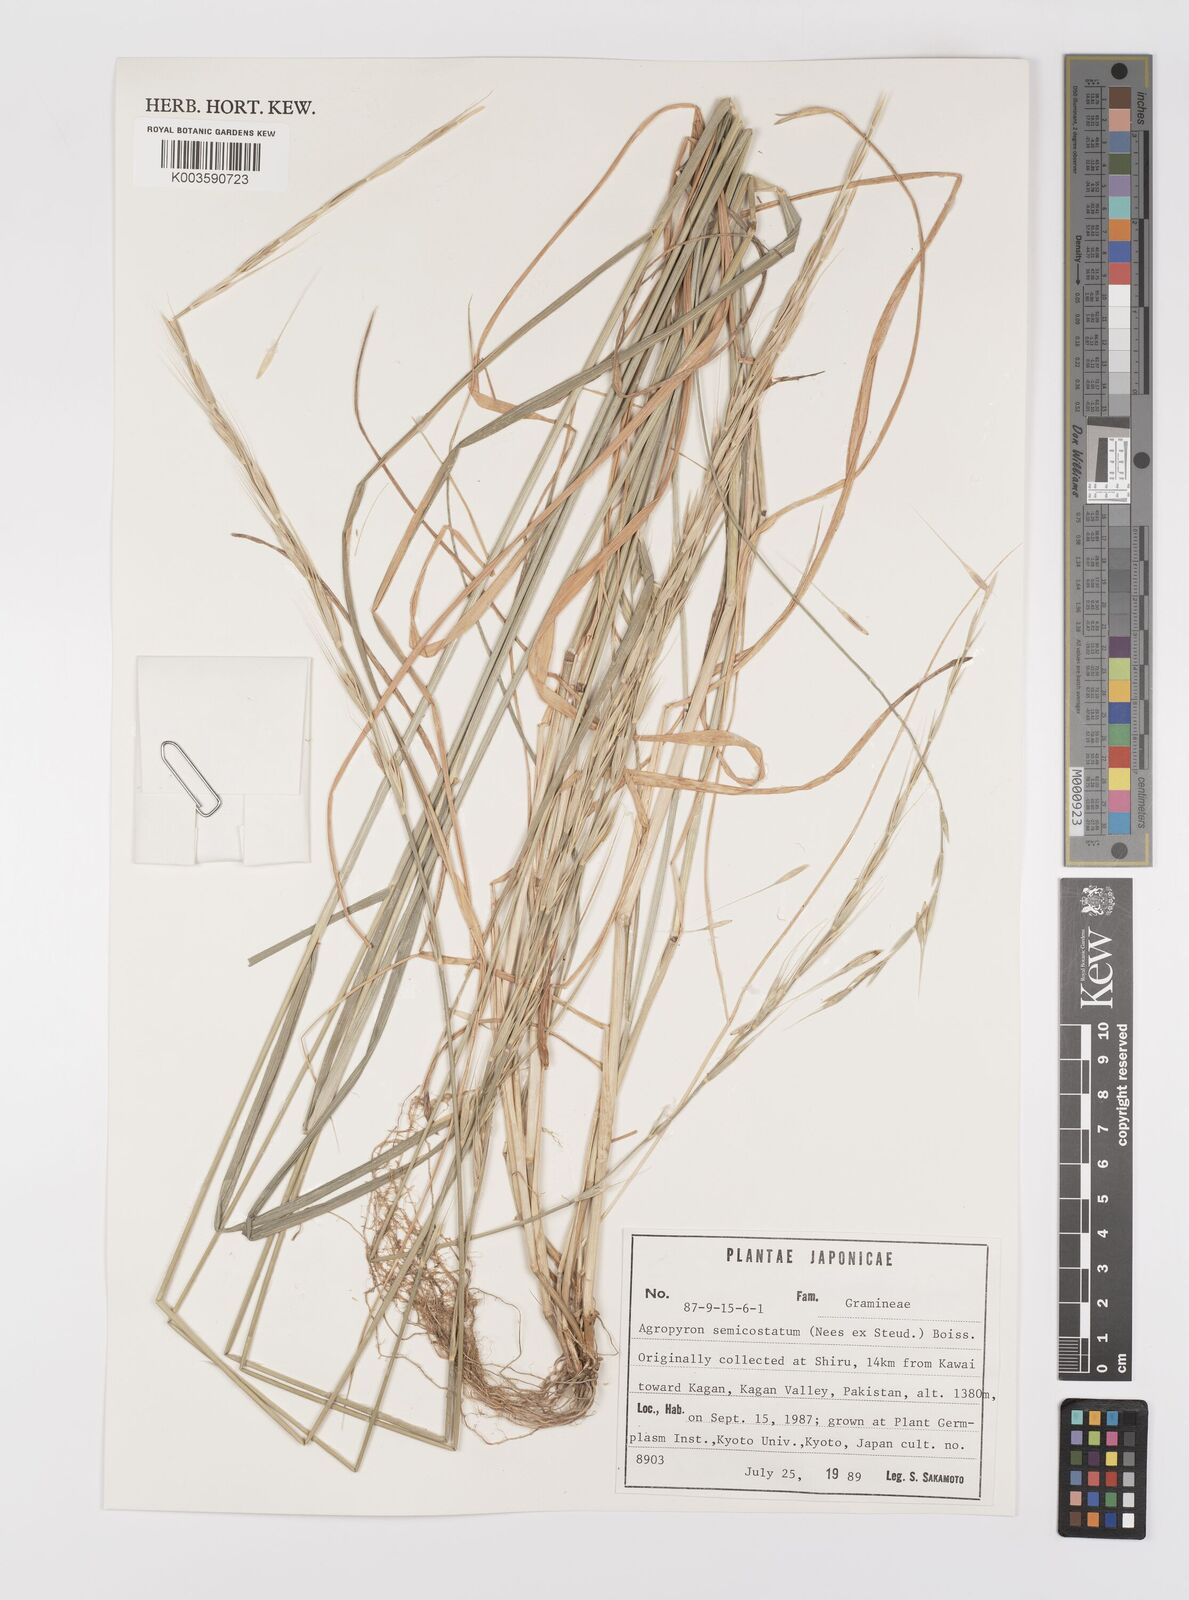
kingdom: Plantae
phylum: Tracheophyta
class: Liliopsida
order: Poales
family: Poaceae
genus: Elymus
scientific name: Elymus semicostatus
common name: Drooping wildrye
